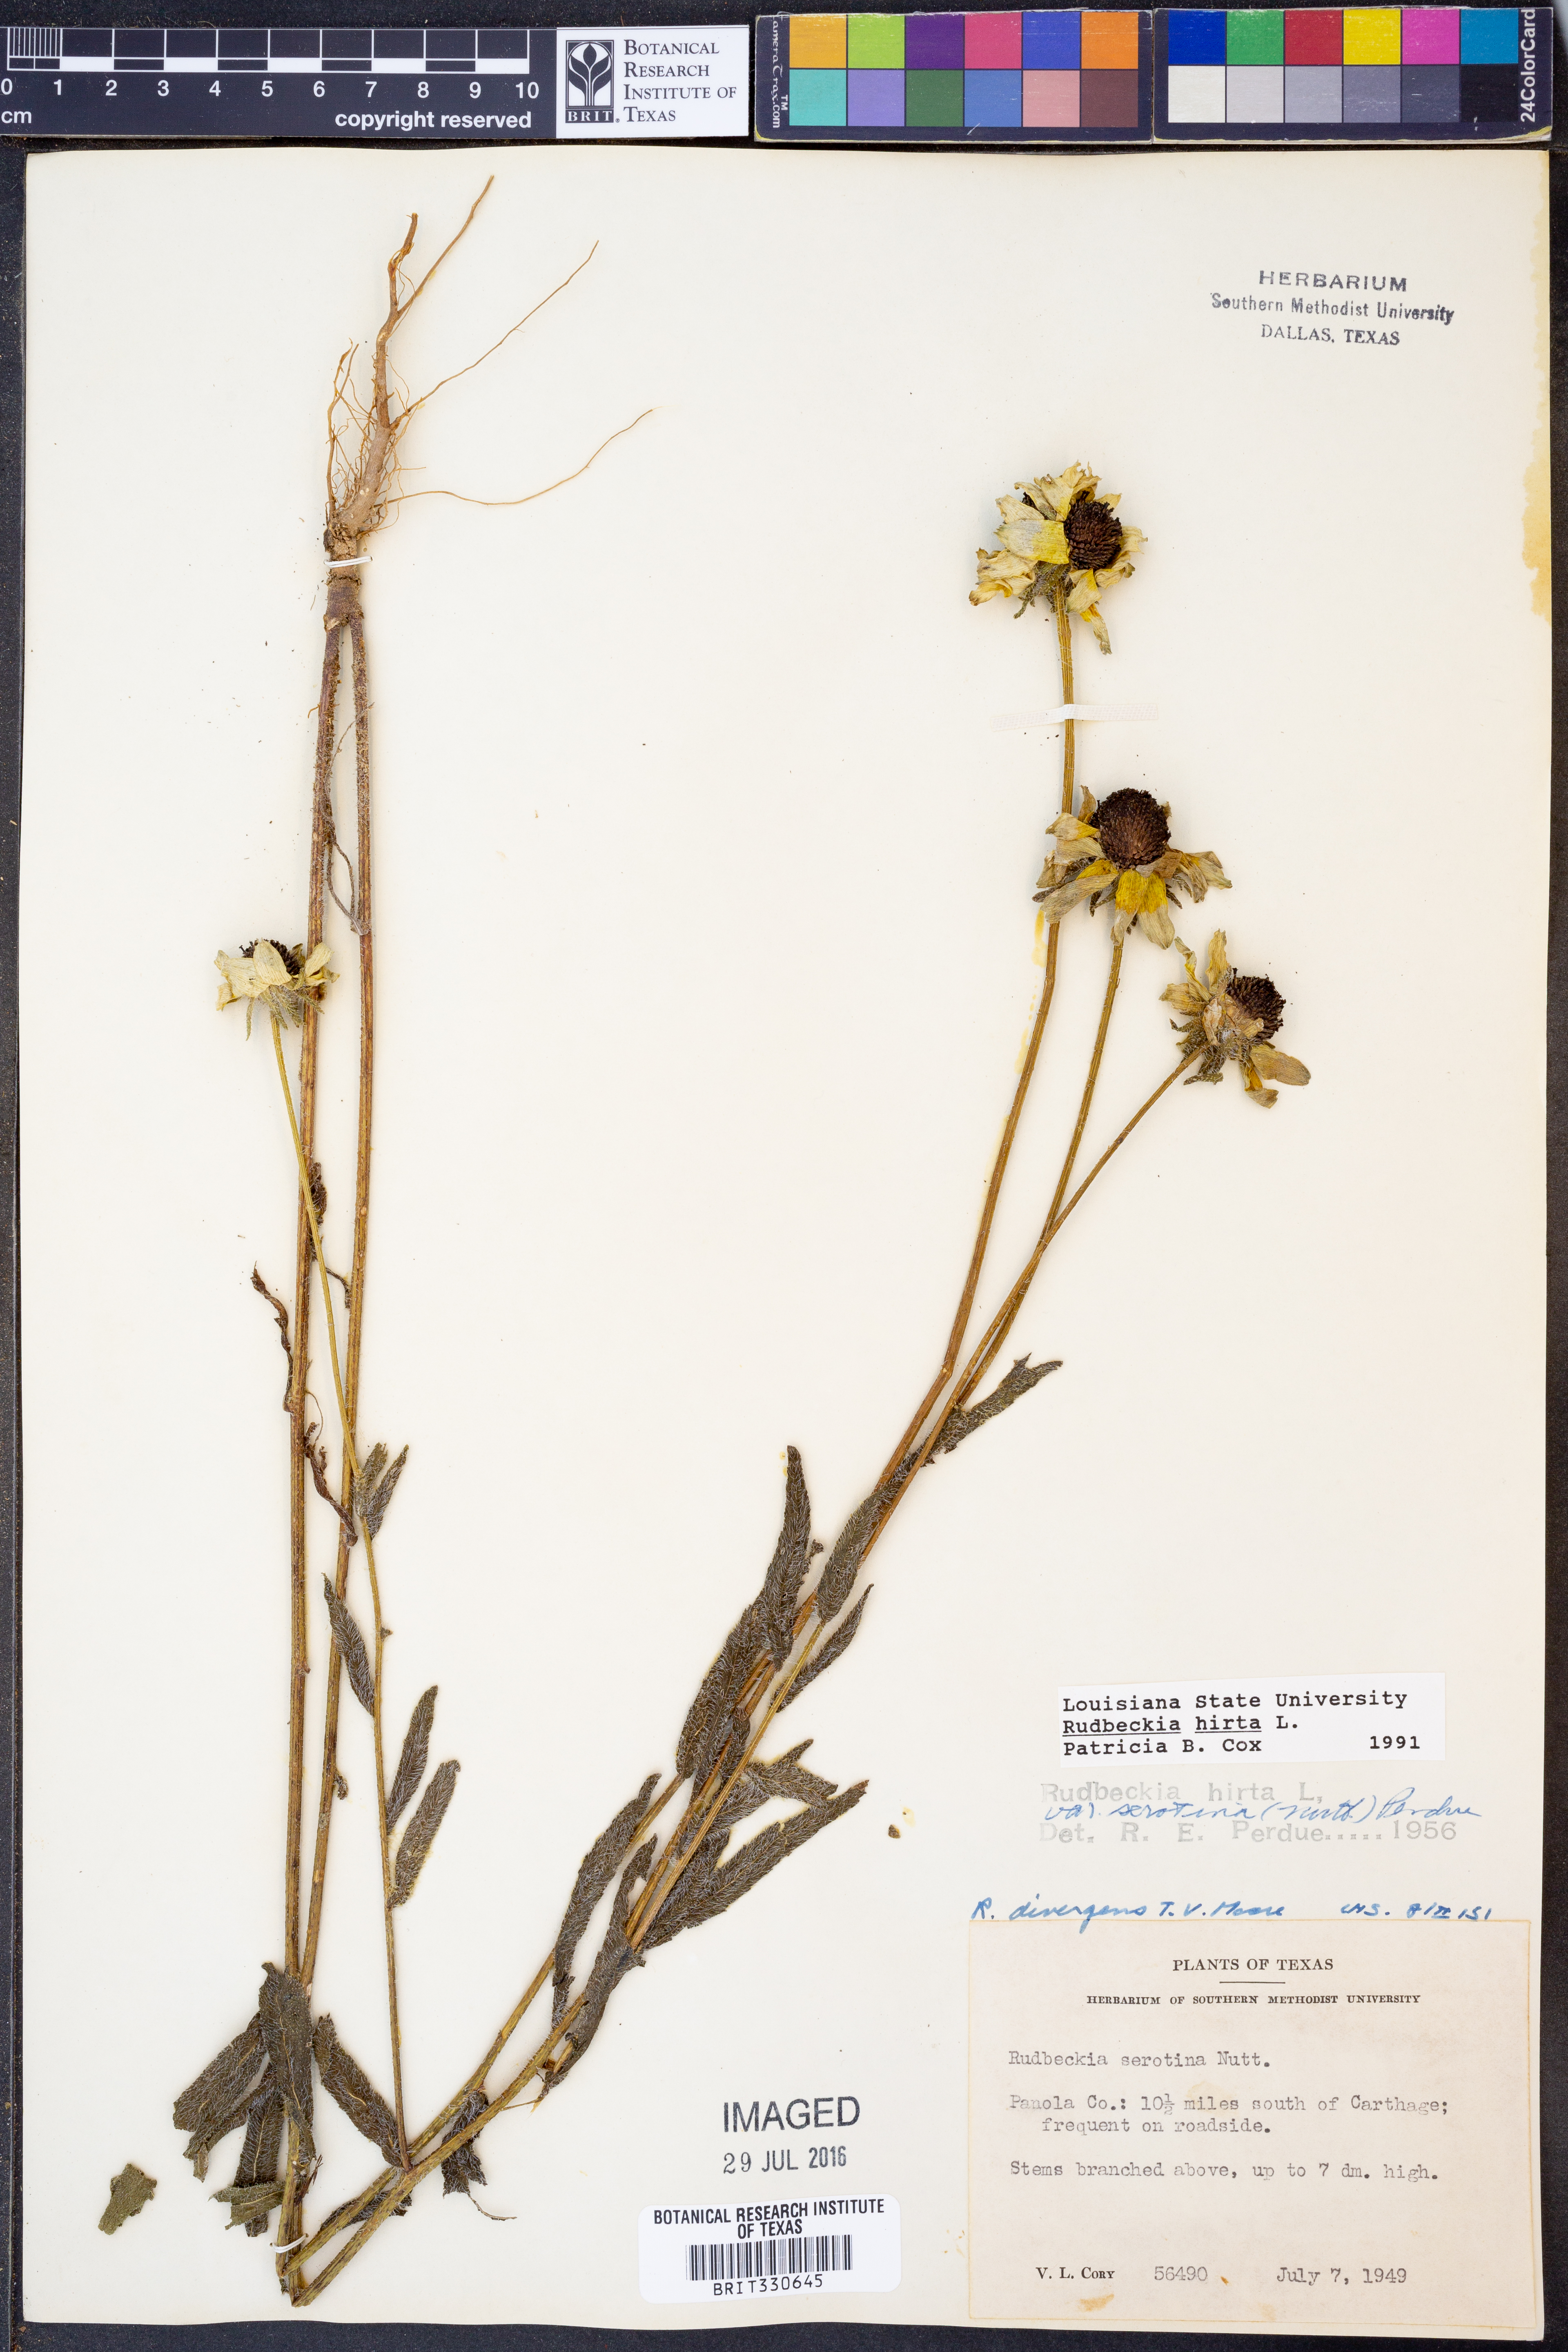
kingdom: Plantae
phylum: Tracheophyta
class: Magnoliopsida
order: Asterales
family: Asteraceae
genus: Rudbeckia
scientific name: Rudbeckia hirta
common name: Black-eyed-susan
